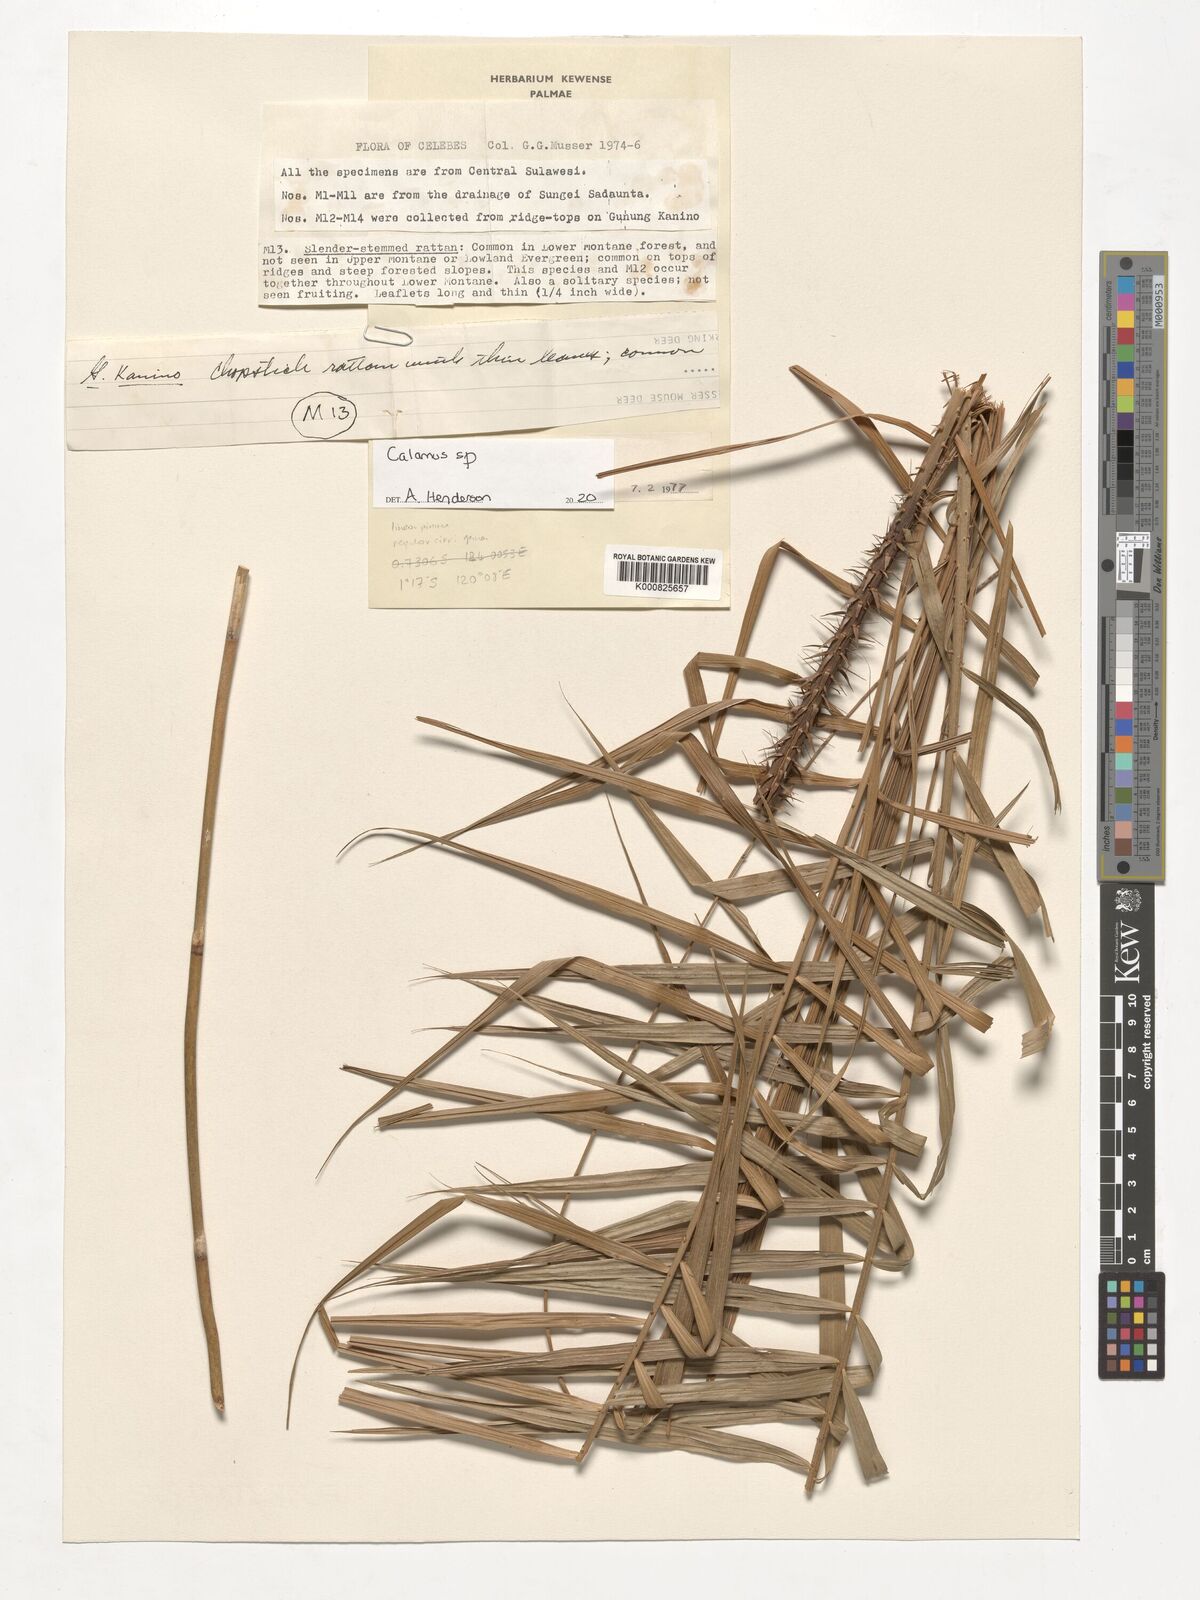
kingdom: Plantae
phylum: Tracheophyta
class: Liliopsida
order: Arecales
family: Arecaceae
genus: Calamus
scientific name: Calamus
